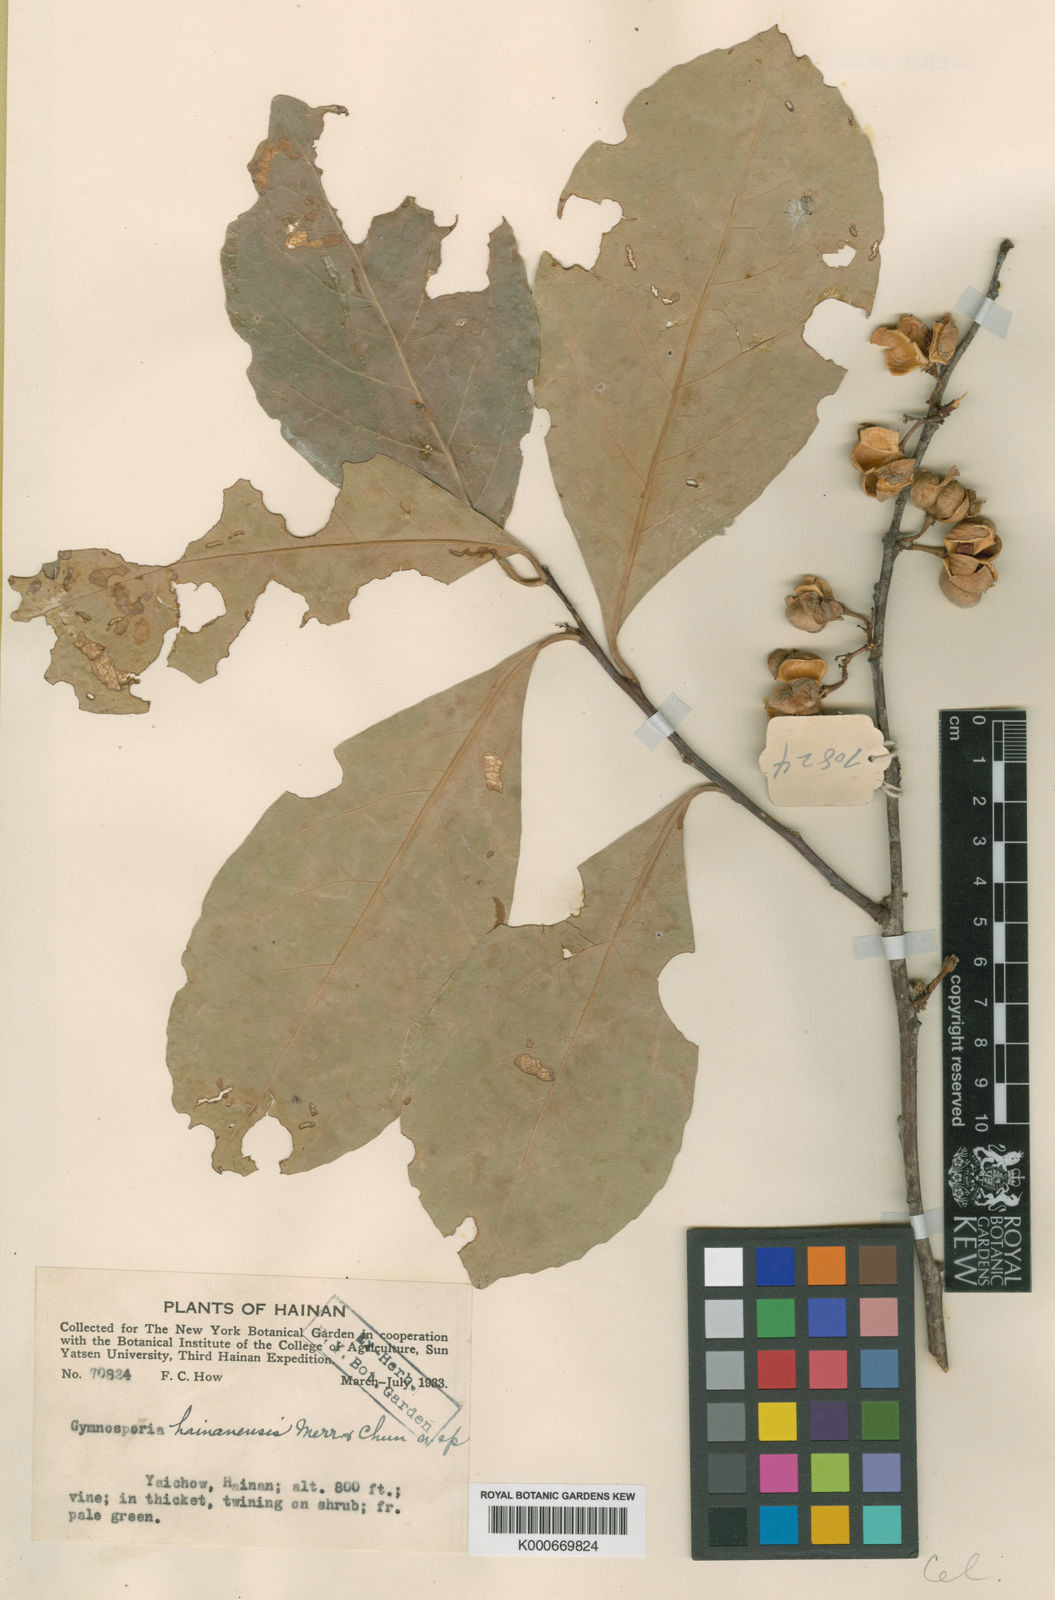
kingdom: Plantae
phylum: Tracheophyta
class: Magnoliopsida
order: Celastrales
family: Celastraceae
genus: Gymnosporia
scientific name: Gymnosporia hainanensis
